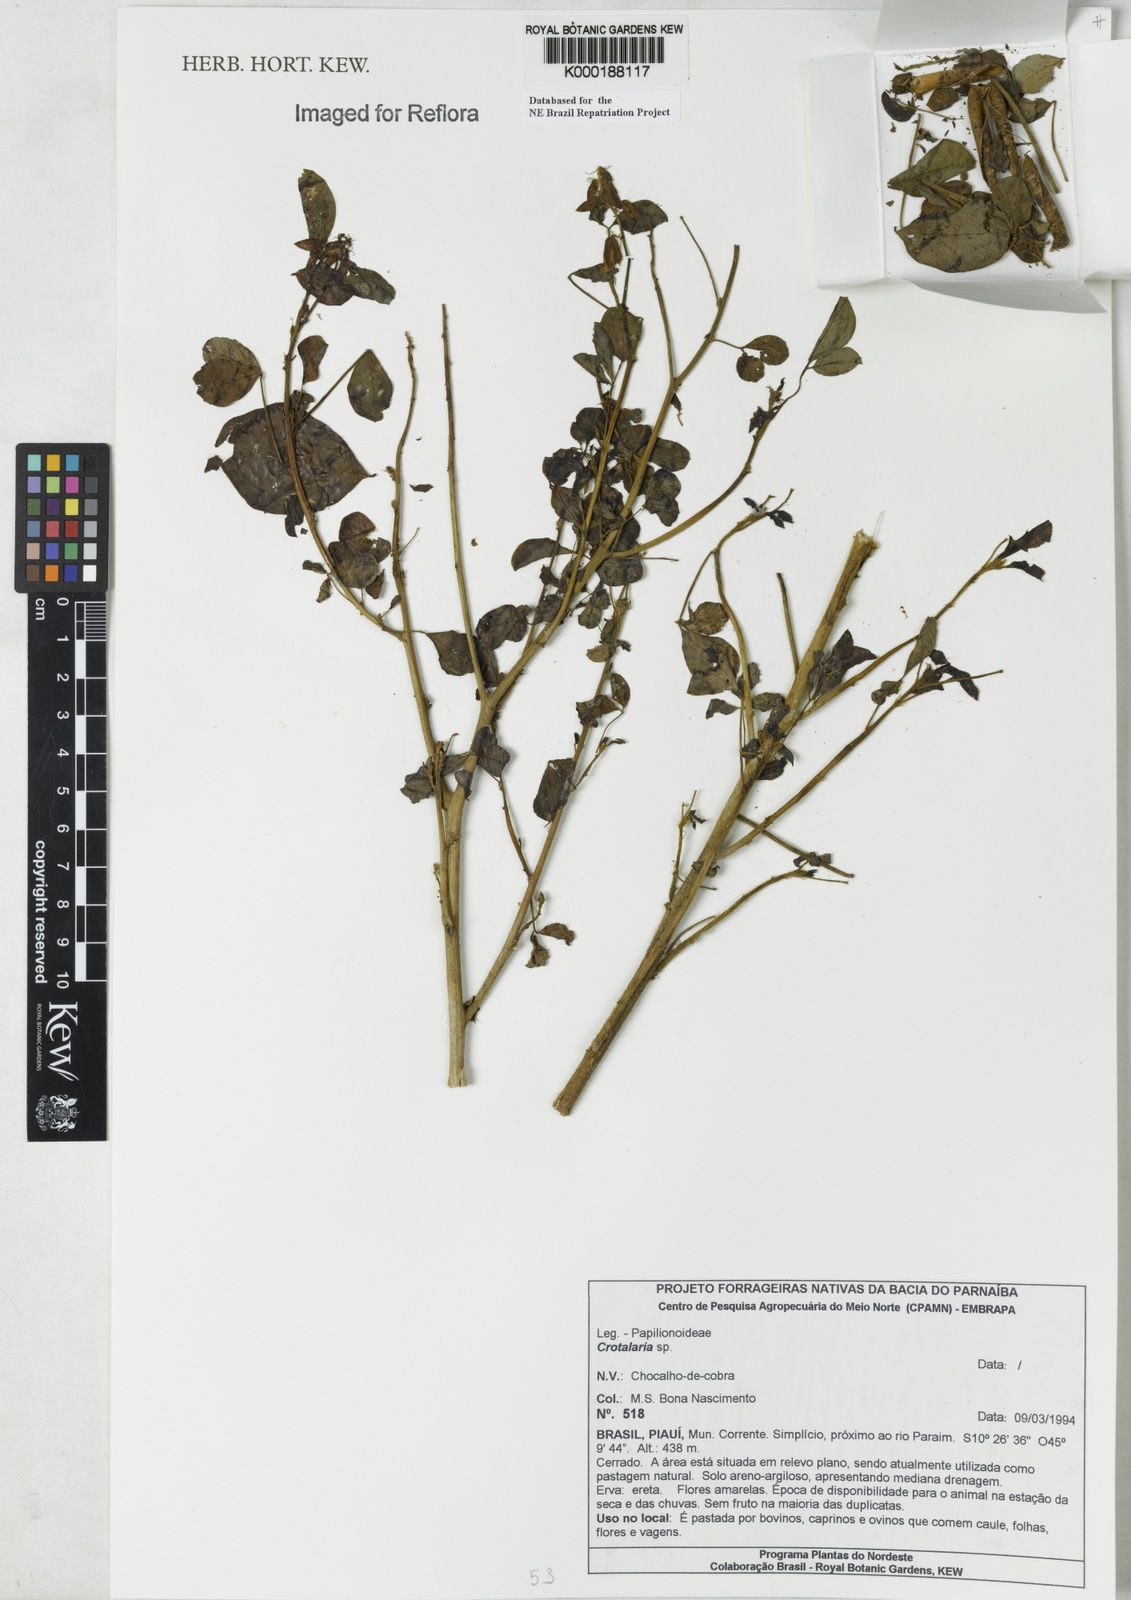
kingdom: Plantae
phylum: Tracheophyta
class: Magnoliopsida
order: Fabales
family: Fabaceae
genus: Crotalaria
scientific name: Crotalaria
